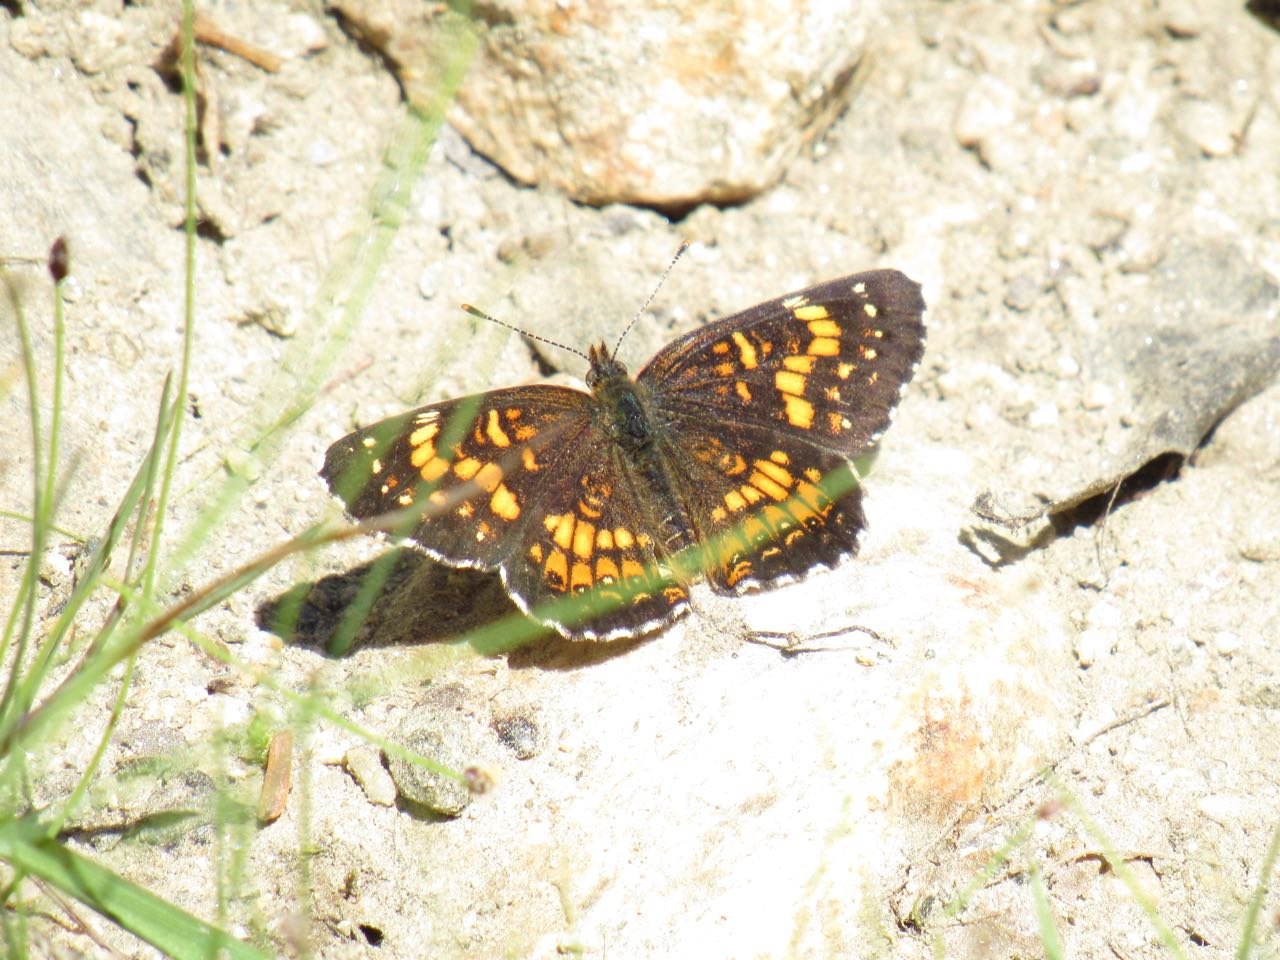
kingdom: Animalia
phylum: Arthropoda
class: Insecta
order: Lepidoptera
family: Nymphalidae
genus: Chlosyne
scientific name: Chlosyne harrisii
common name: Harris's Checkerspot
